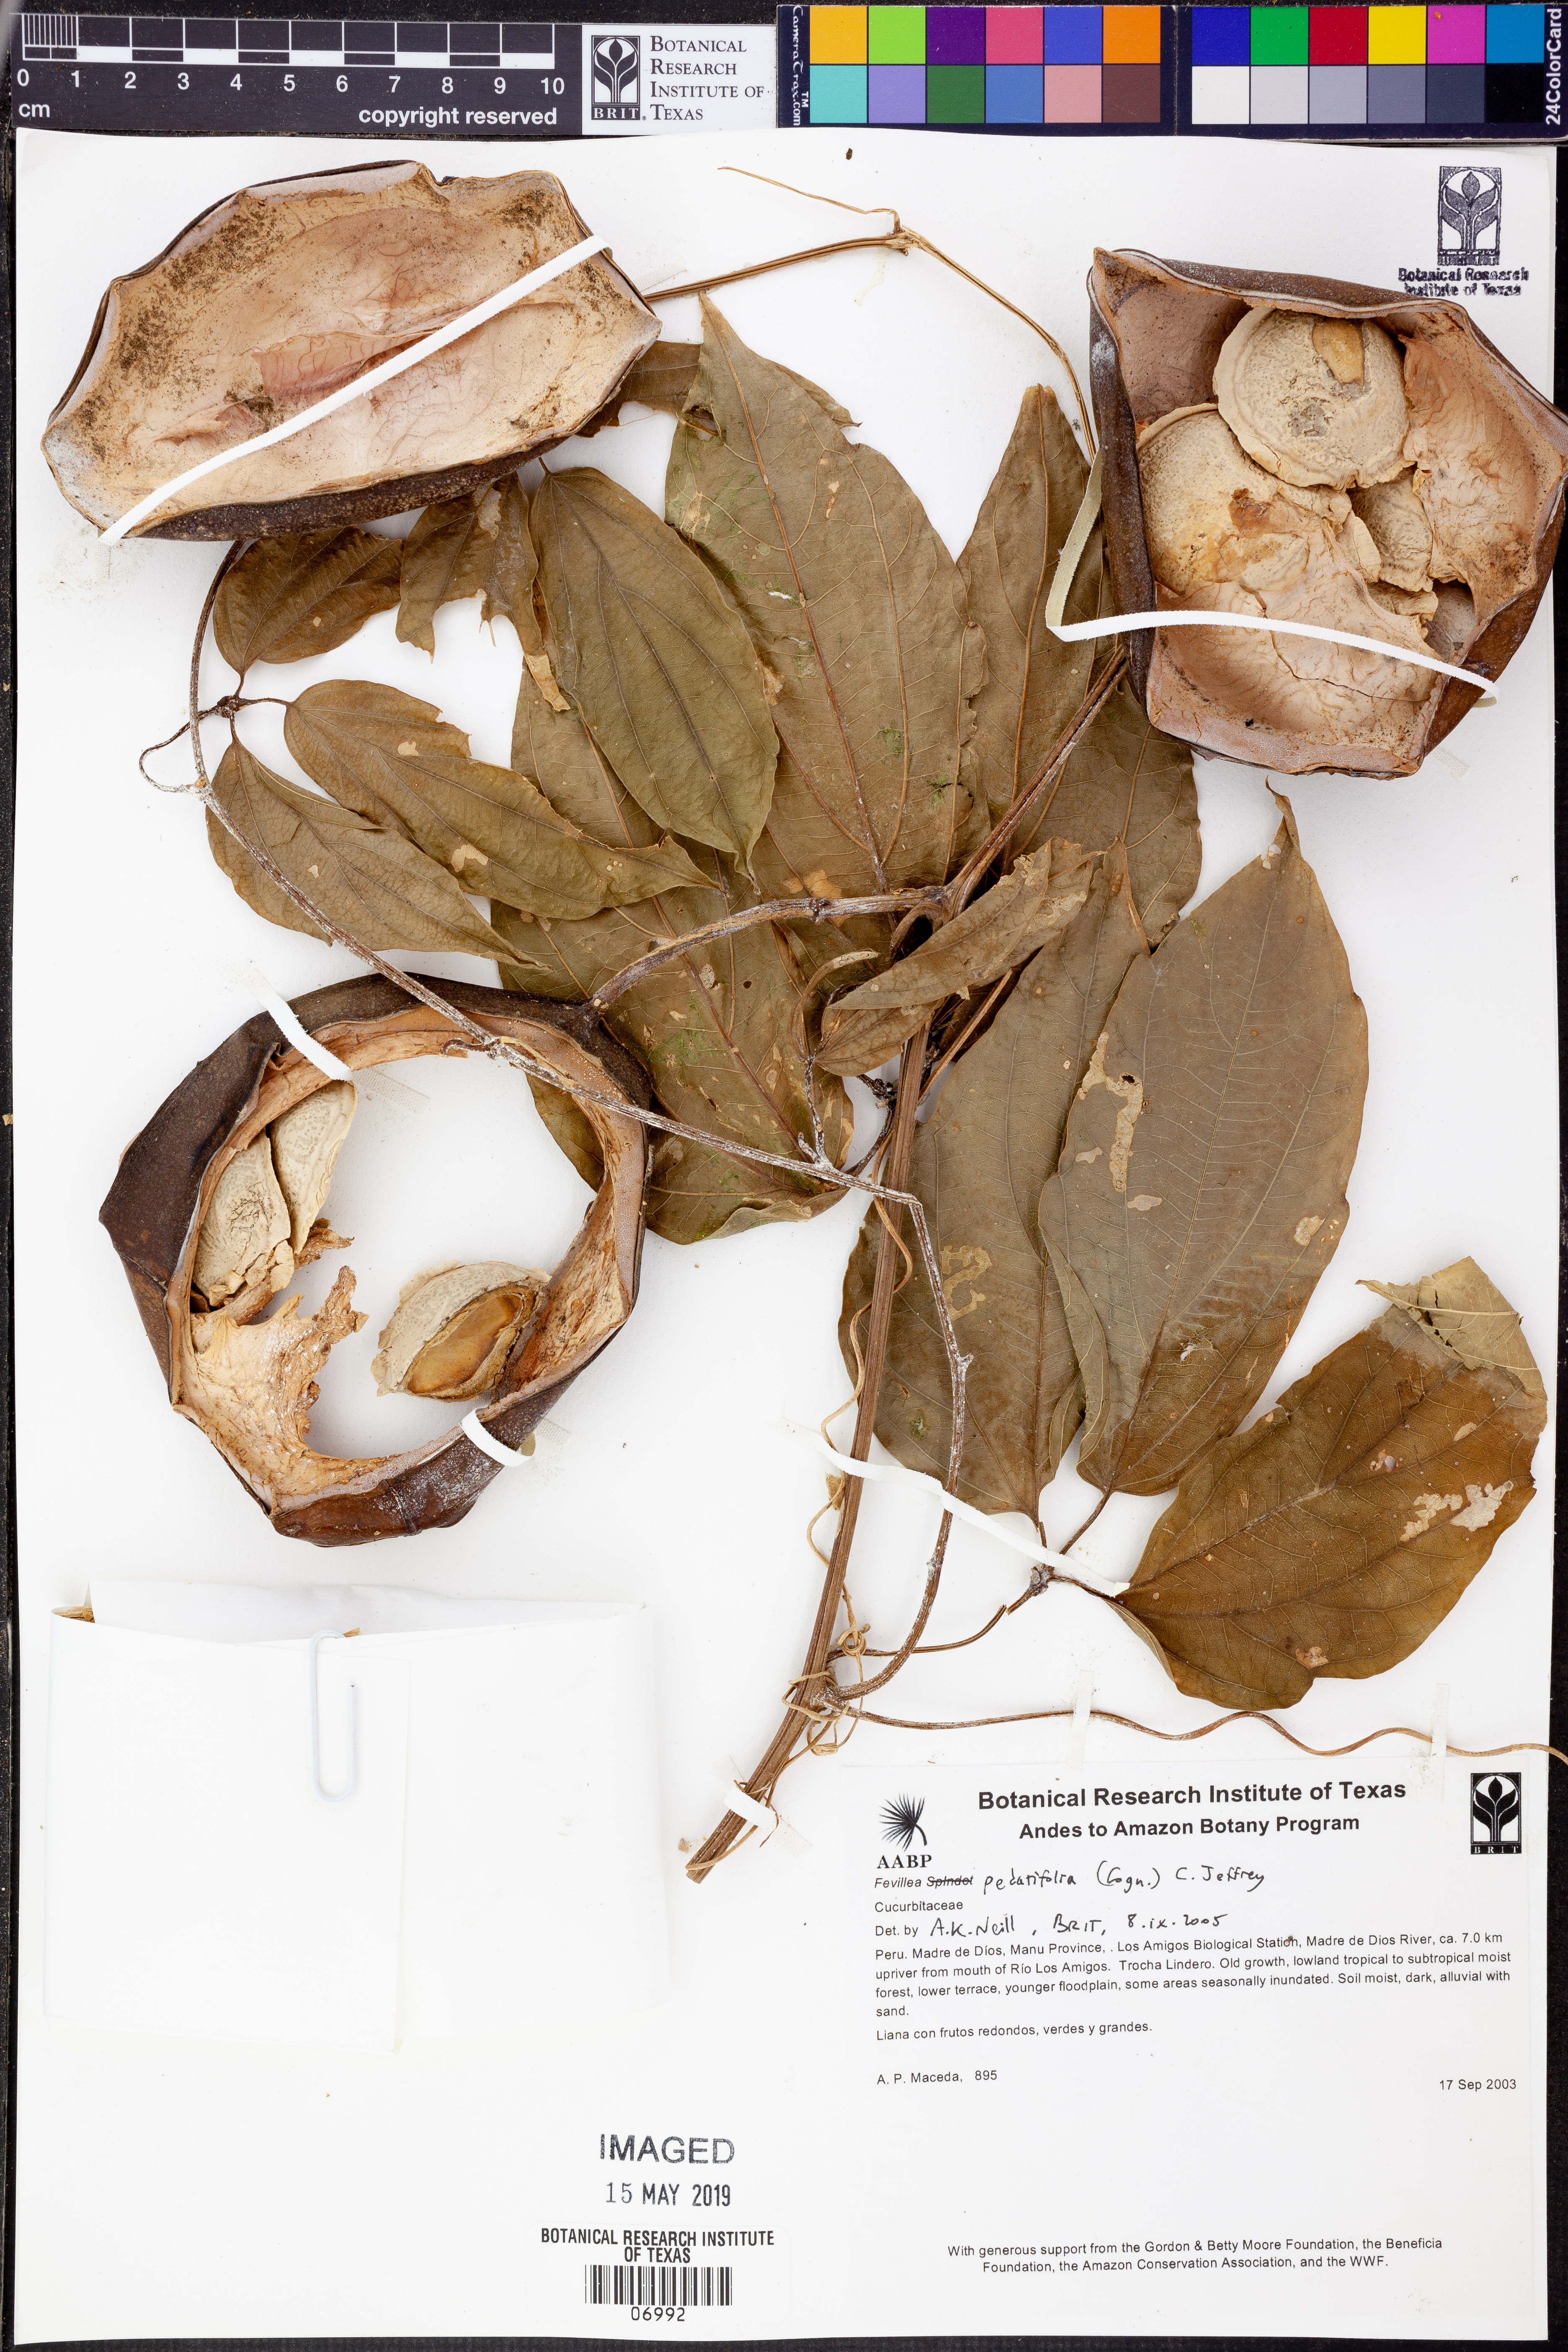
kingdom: Plantae
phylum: Tracheophyta
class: Magnoliopsida
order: Cucurbitales
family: Cucurbitaceae
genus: Fevillea
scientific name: Fevillea
